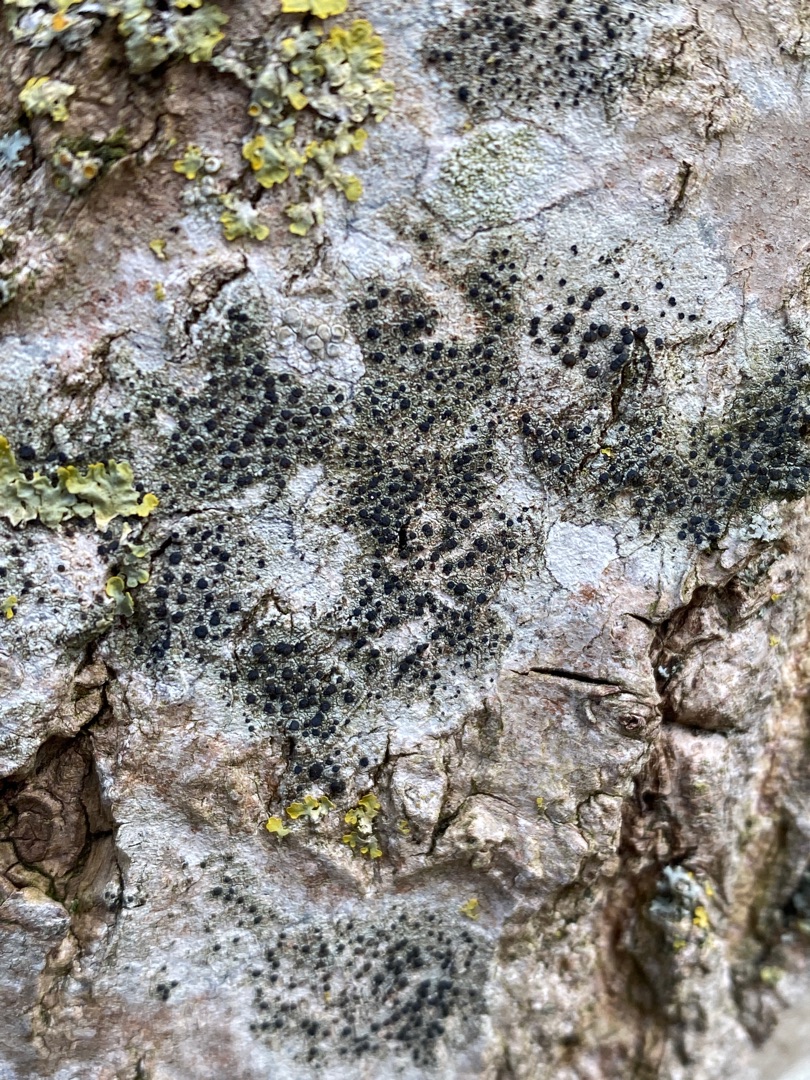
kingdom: Fungi
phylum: Ascomycota
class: Lecanoromycetes
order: Lecanorales
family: Lecanoraceae
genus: Lecidella
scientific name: Lecidella elaeochroma
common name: Grågrøn skivelav
